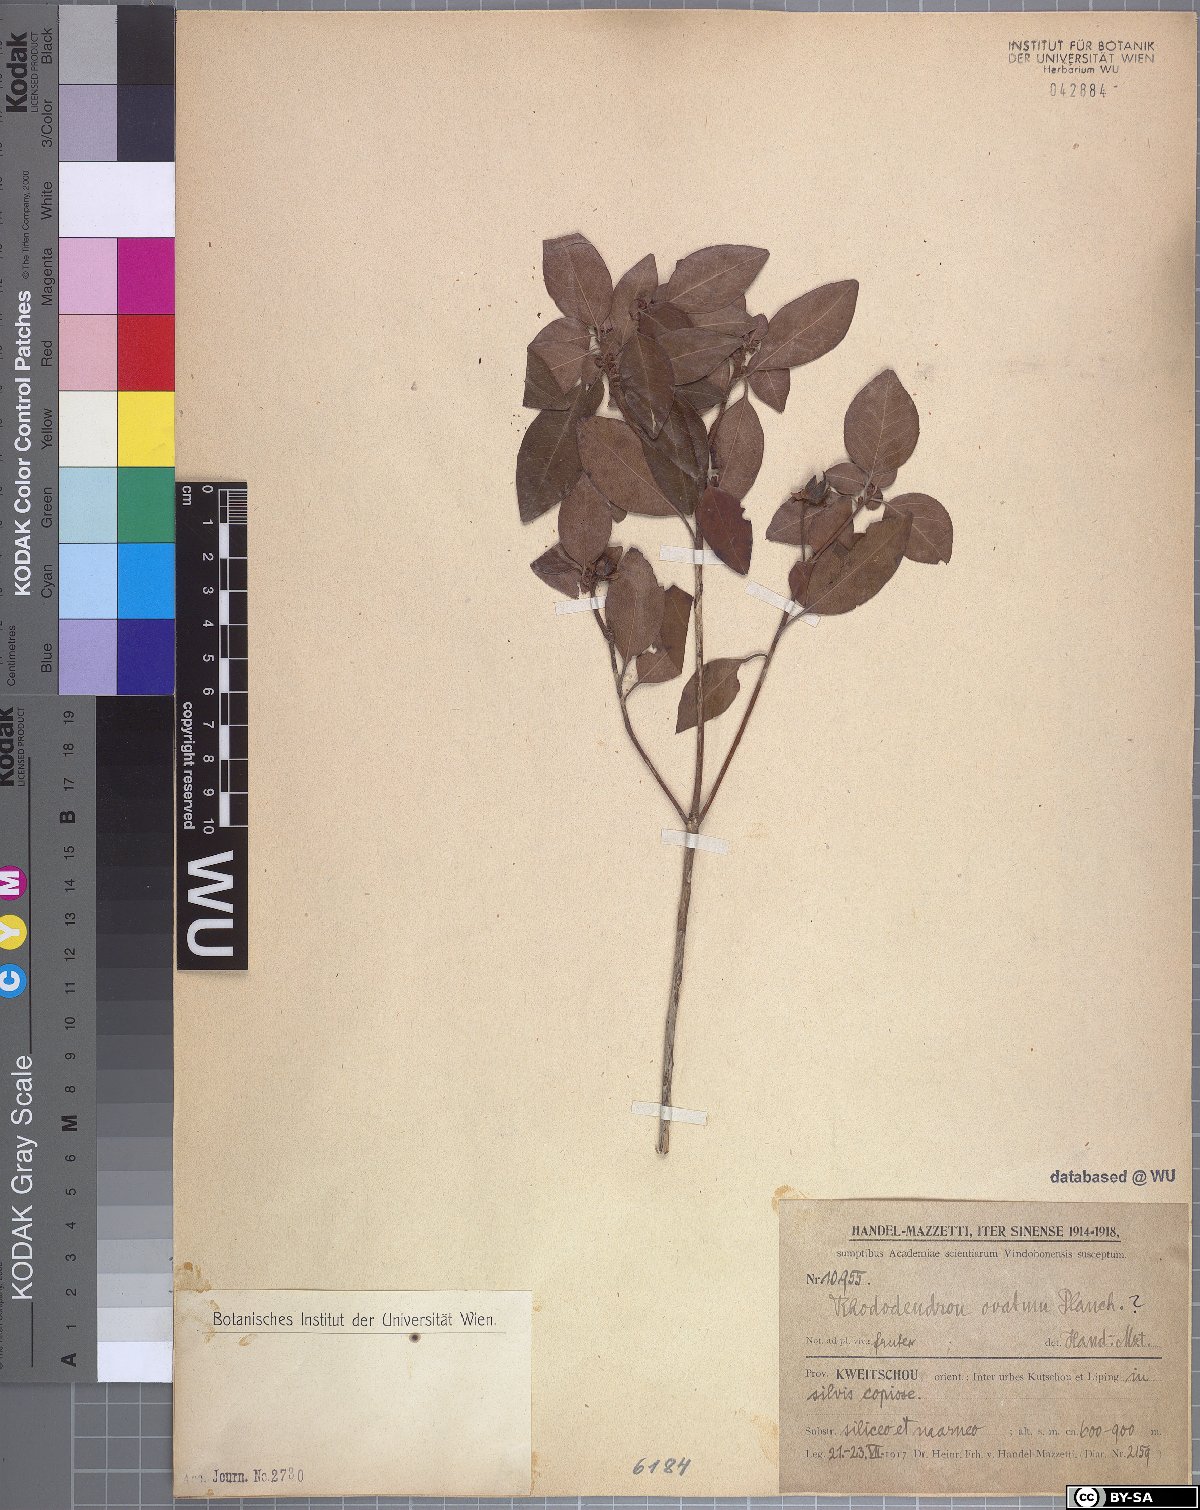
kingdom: Plantae
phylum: Tracheophyta
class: Magnoliopsida
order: Ericales
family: Ericaceae
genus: Rhododendron
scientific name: Rhododendron ovatum
